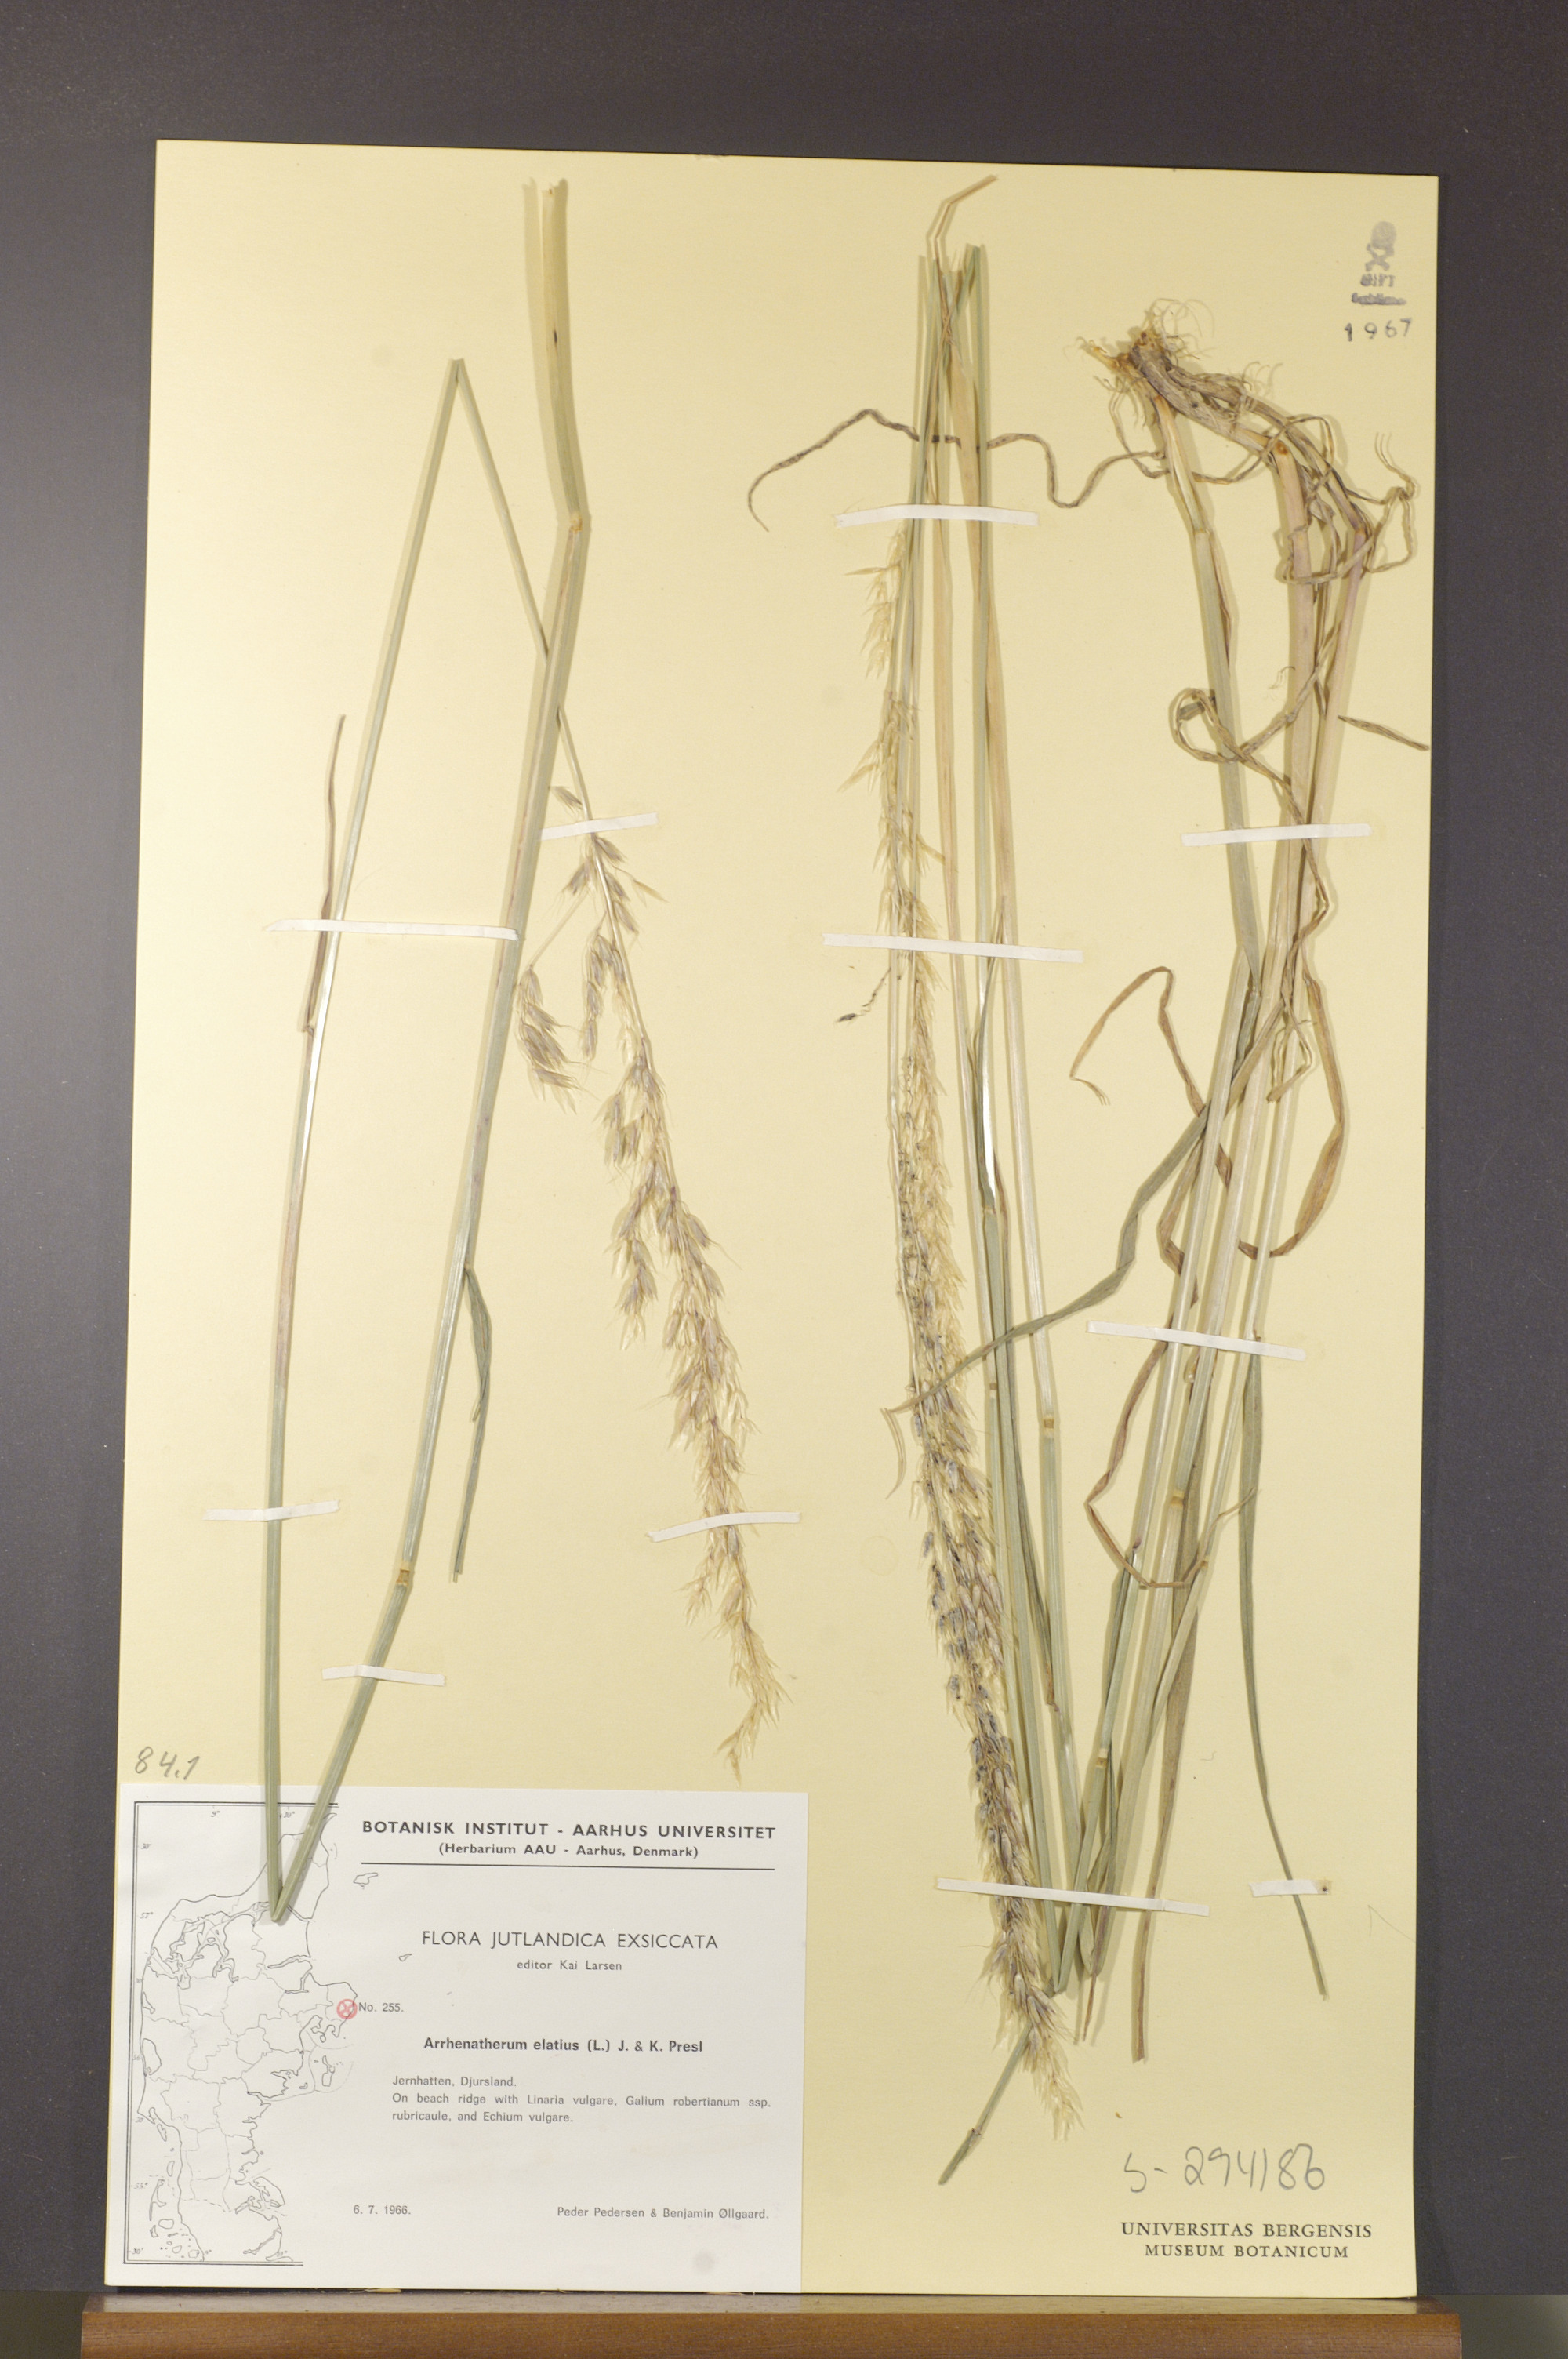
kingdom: Plantae
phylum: Tracheophyta
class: Liliopsida
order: Poales
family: Poaceae
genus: Arrhenatherum
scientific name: Arrhenatherum elatius
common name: Tall oatgrass
